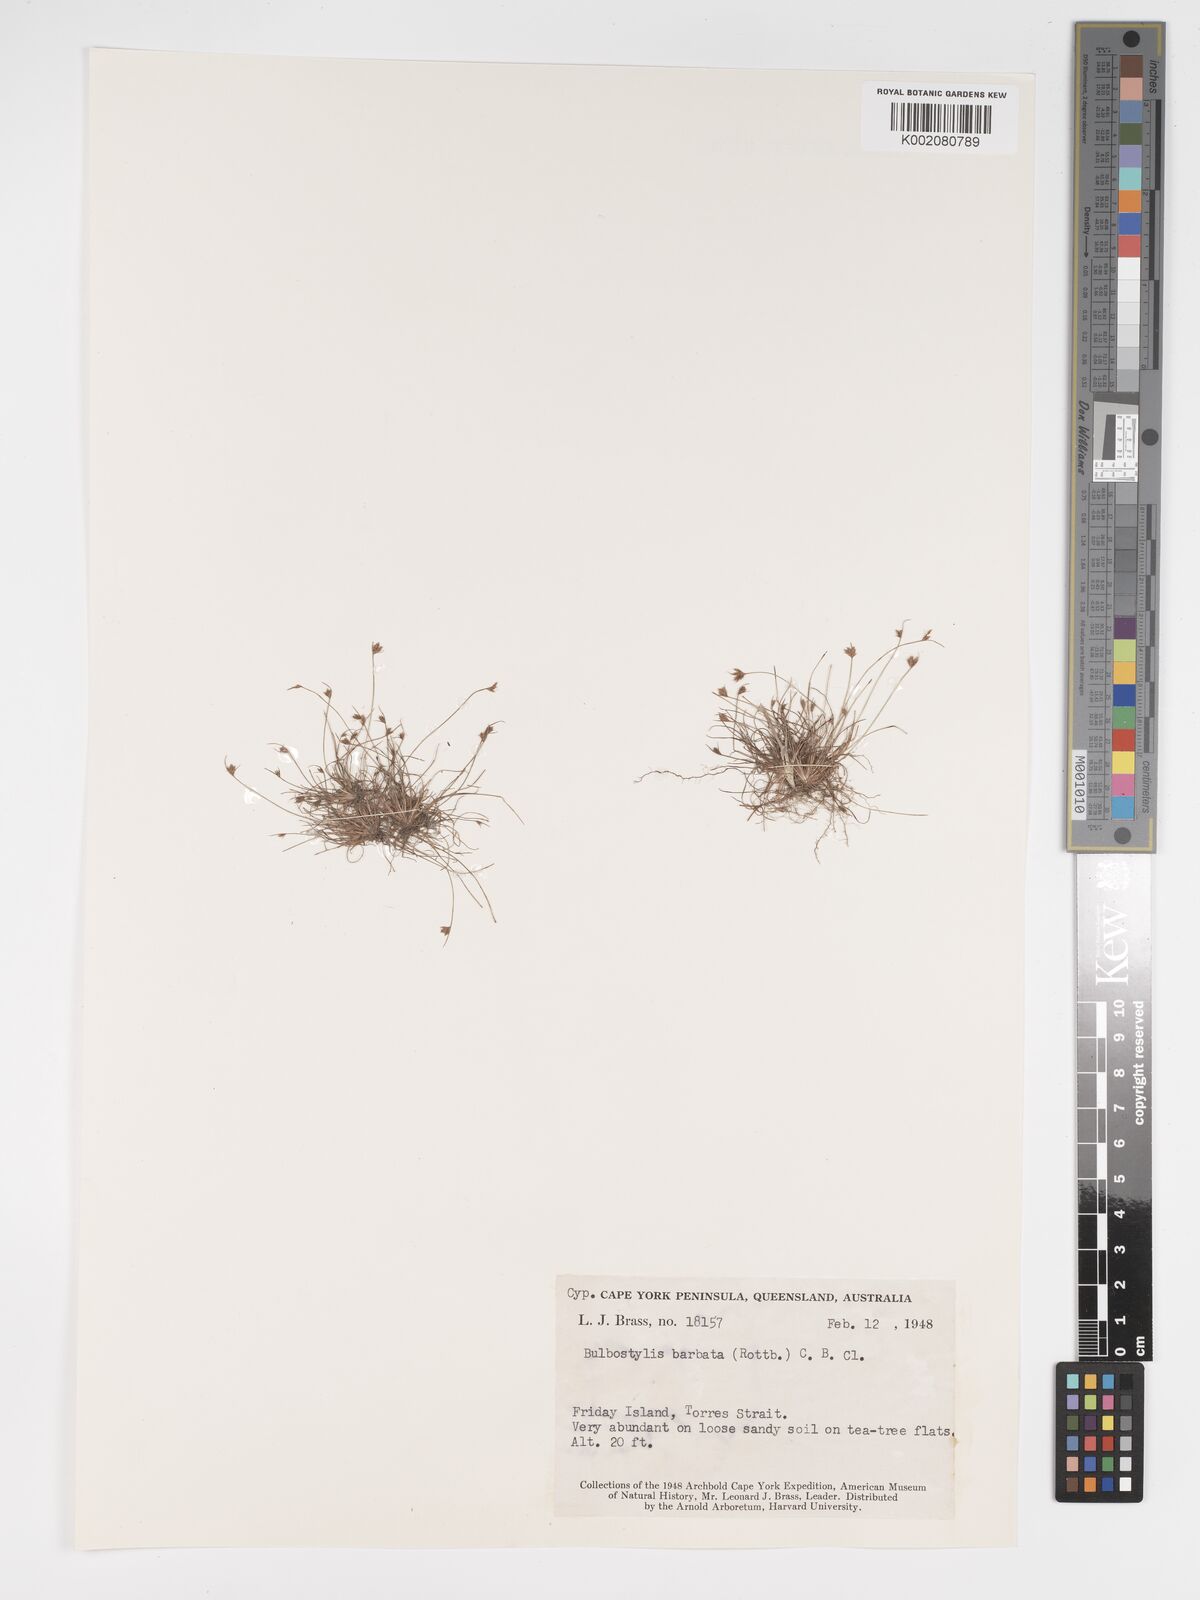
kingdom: Plantae
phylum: Tracheophyta
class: Liliopsida
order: Poales
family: Cyperaceae
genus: Bulbostylis
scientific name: Bulbostylis barbata
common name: Watergrass
